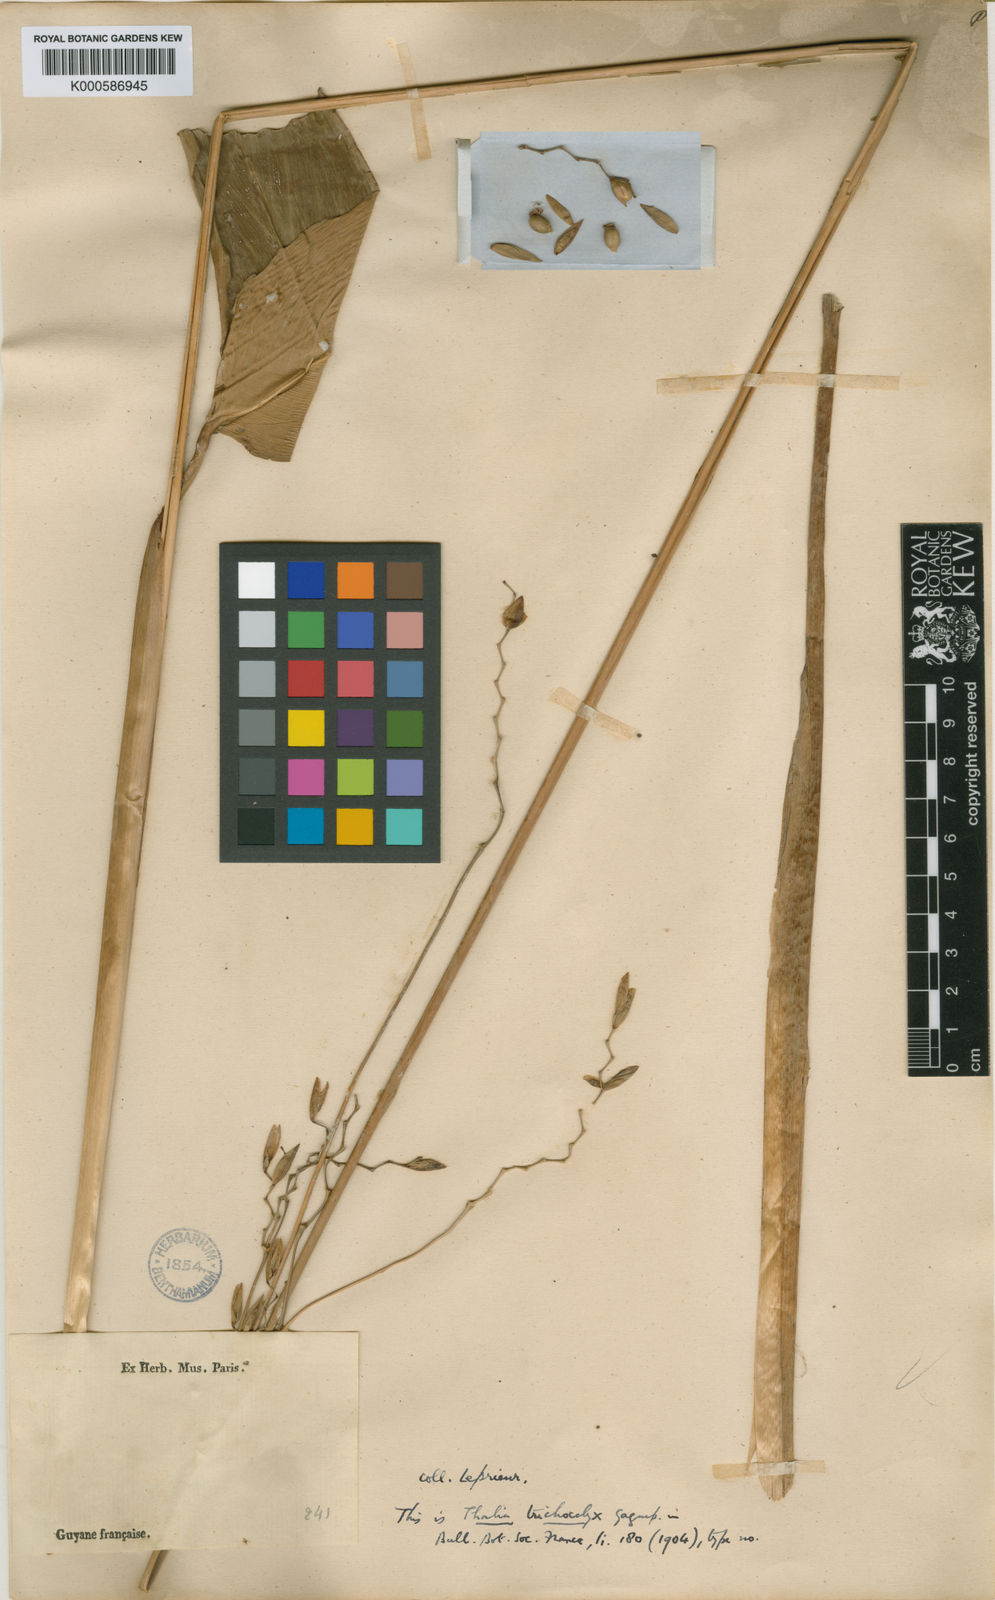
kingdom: Plantae
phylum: Tracheophyta
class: Liliopsida
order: Zingiberales
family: Marantaceae
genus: Thalia
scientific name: Thalia geniculata
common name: Arrowroot
